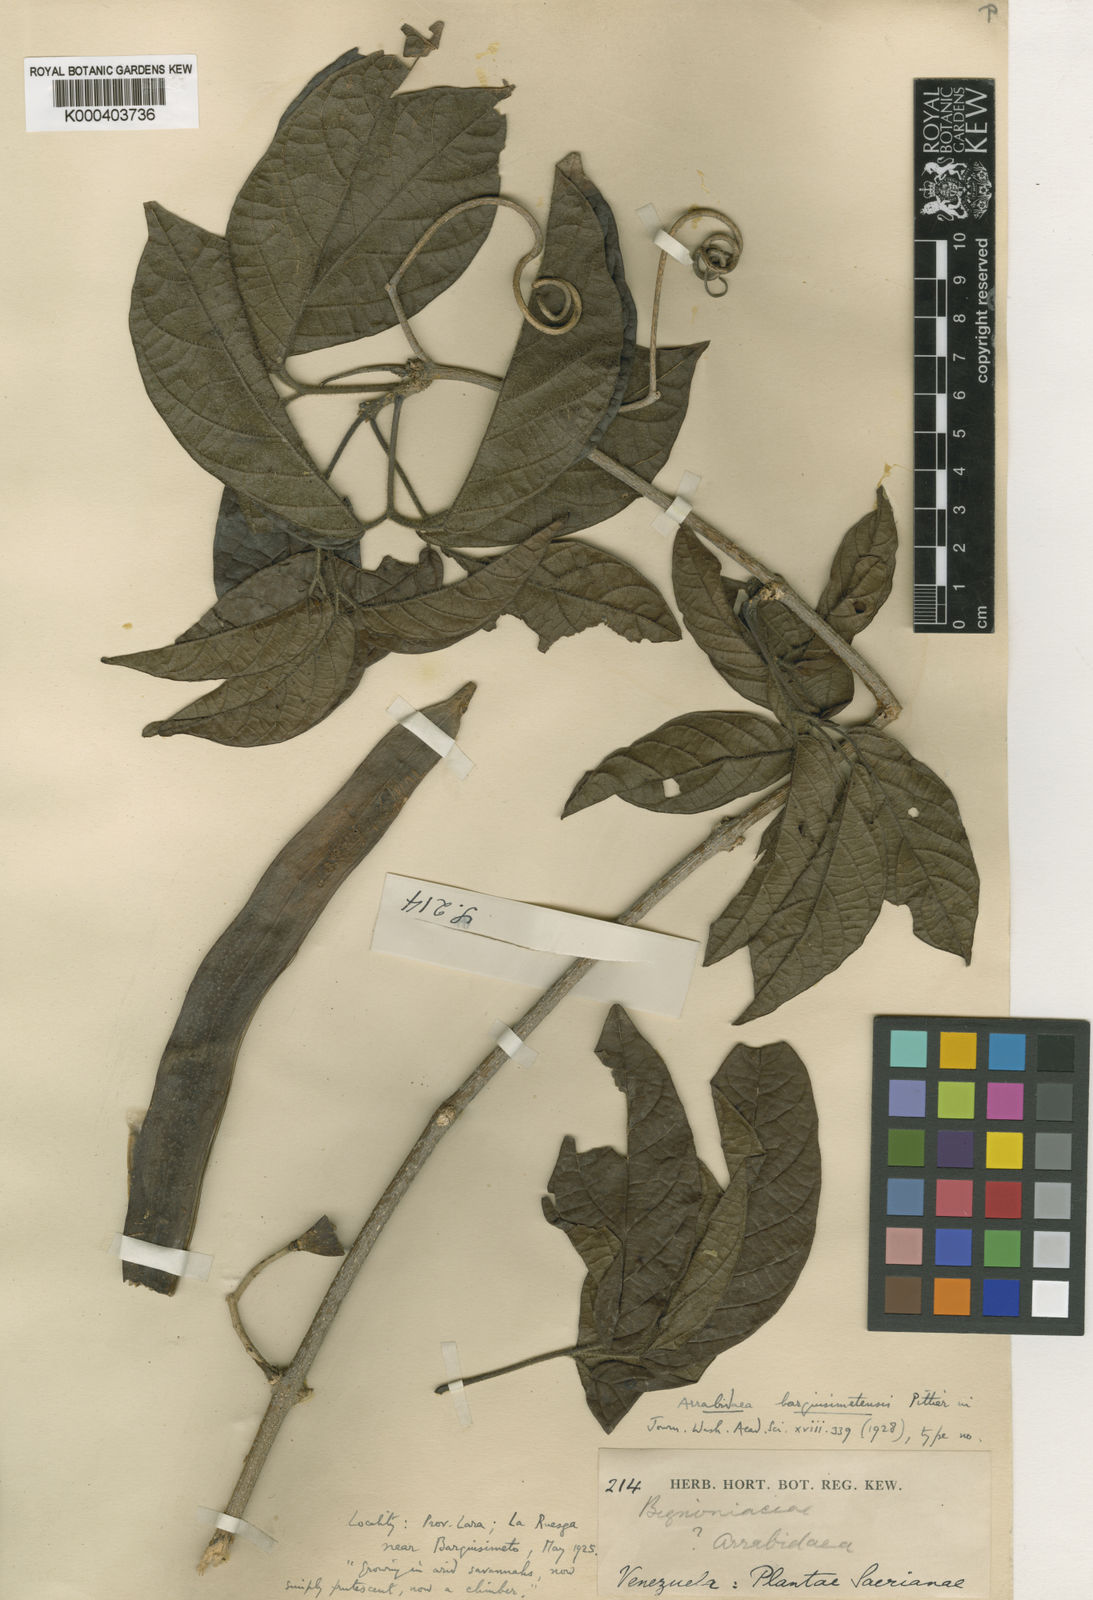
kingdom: Plantae
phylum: Tracheophyta
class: Magnoliopsida
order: Lamiales
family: Bignoniaceae
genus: Tanaecium
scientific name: Tanaecium
